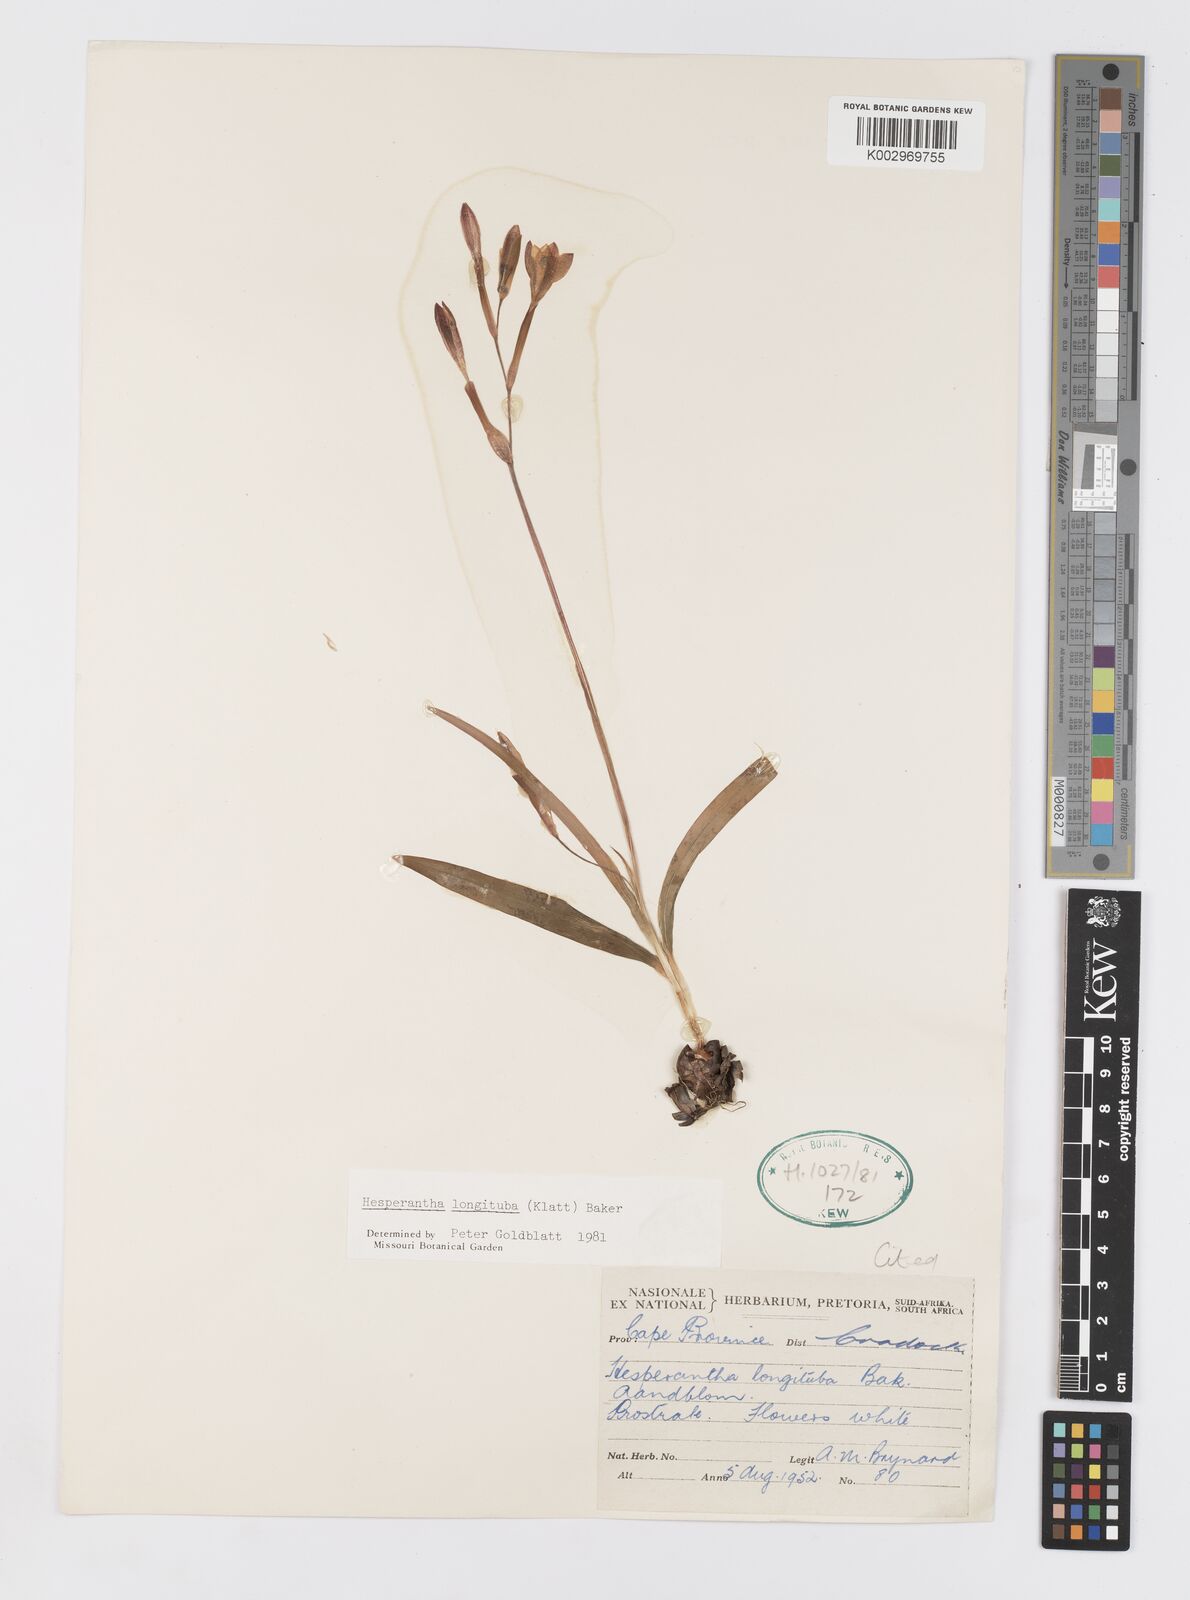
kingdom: Plantae
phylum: Tracheophyta
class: Liliopsida
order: Asparagales
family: Iridaceae
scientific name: Iridaceae
